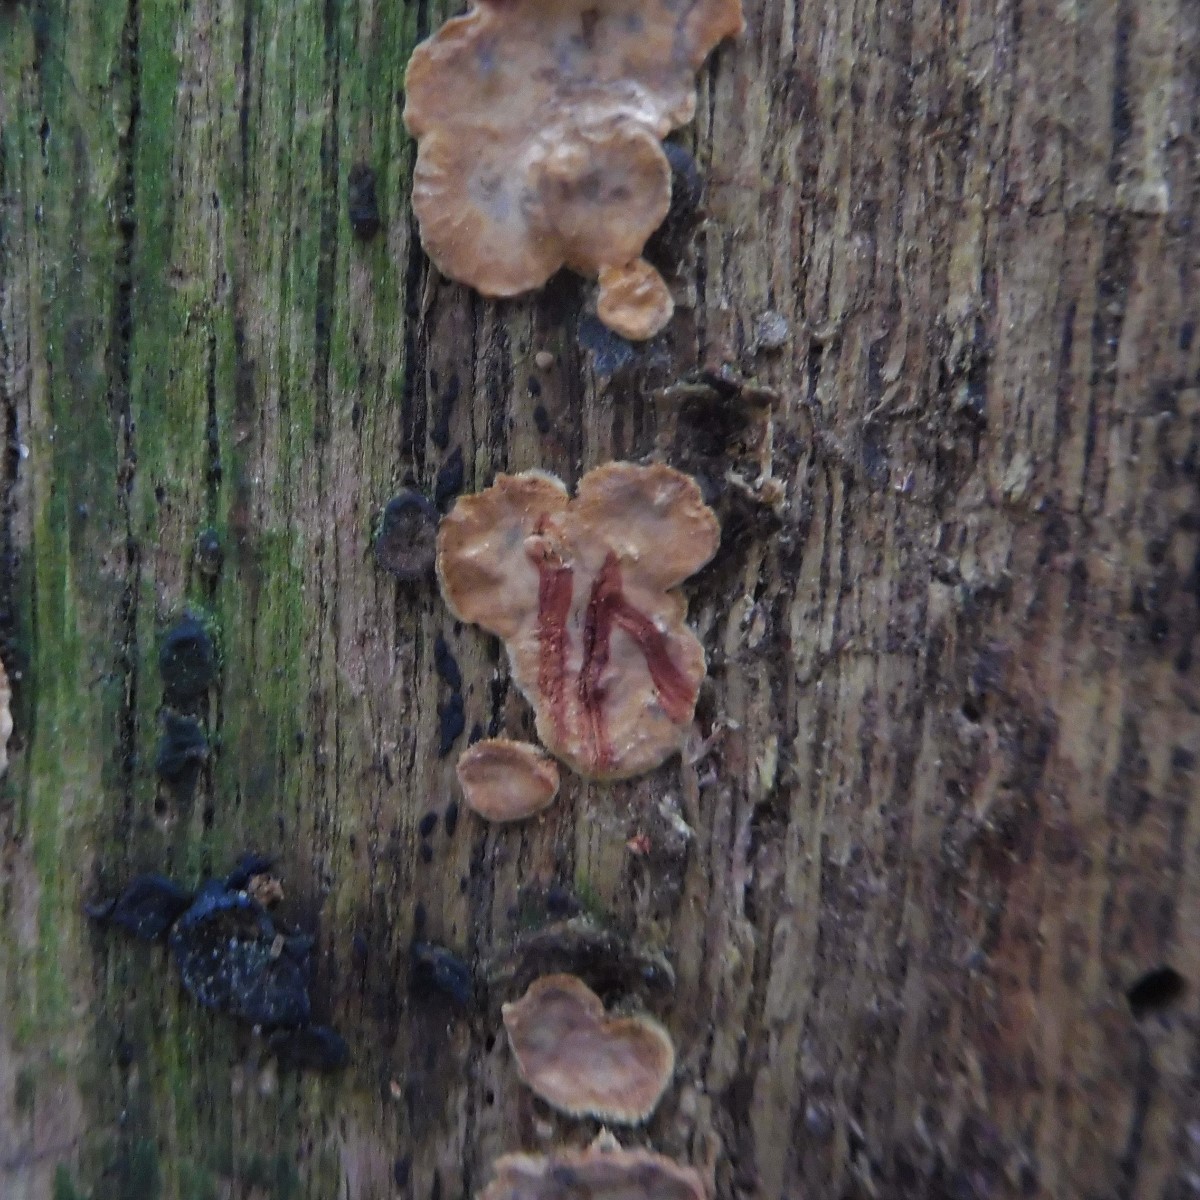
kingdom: Fungi
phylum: Basidiomycota
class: Agaricomycetes
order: Russulales
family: Stereaceae
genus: Stereum
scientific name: Stereum gausapatum
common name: tynd lædersvamp
